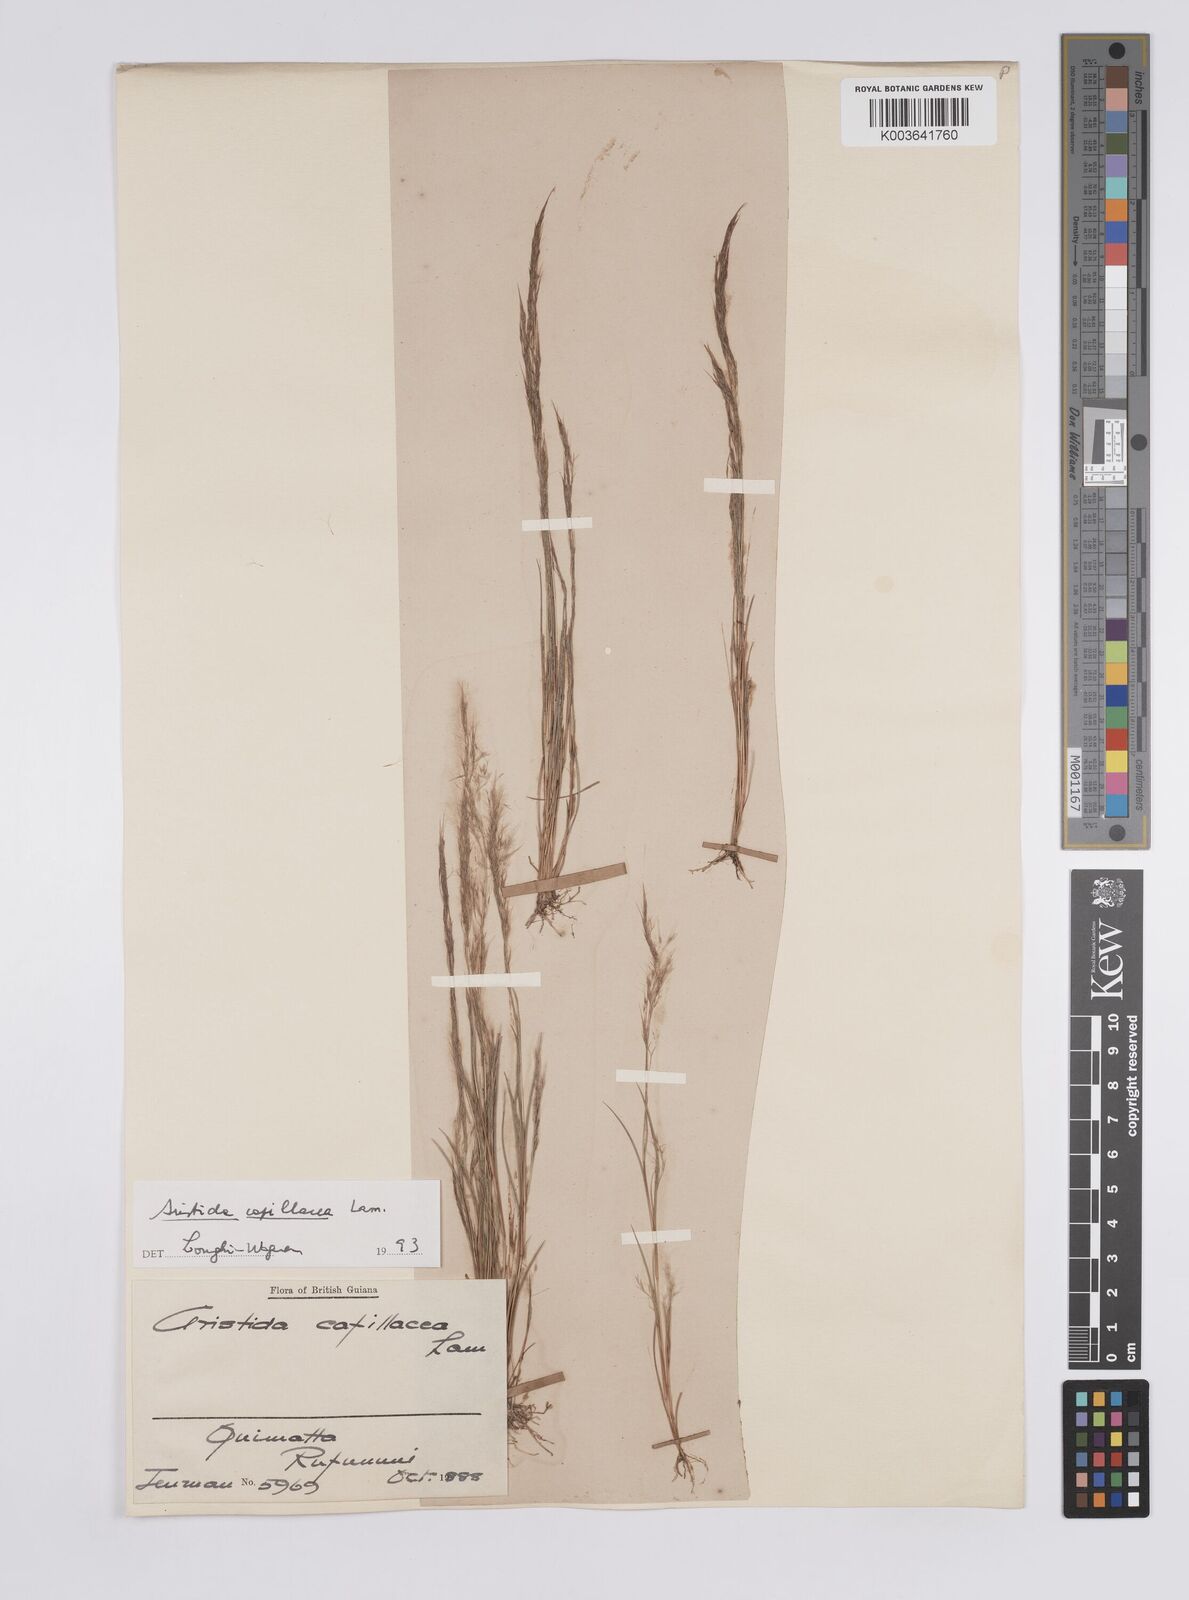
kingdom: Plantae
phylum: Tracheophyta
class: Liliopsida
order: Poales
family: Poaceae
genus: Aristida
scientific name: Aristida capillacea
